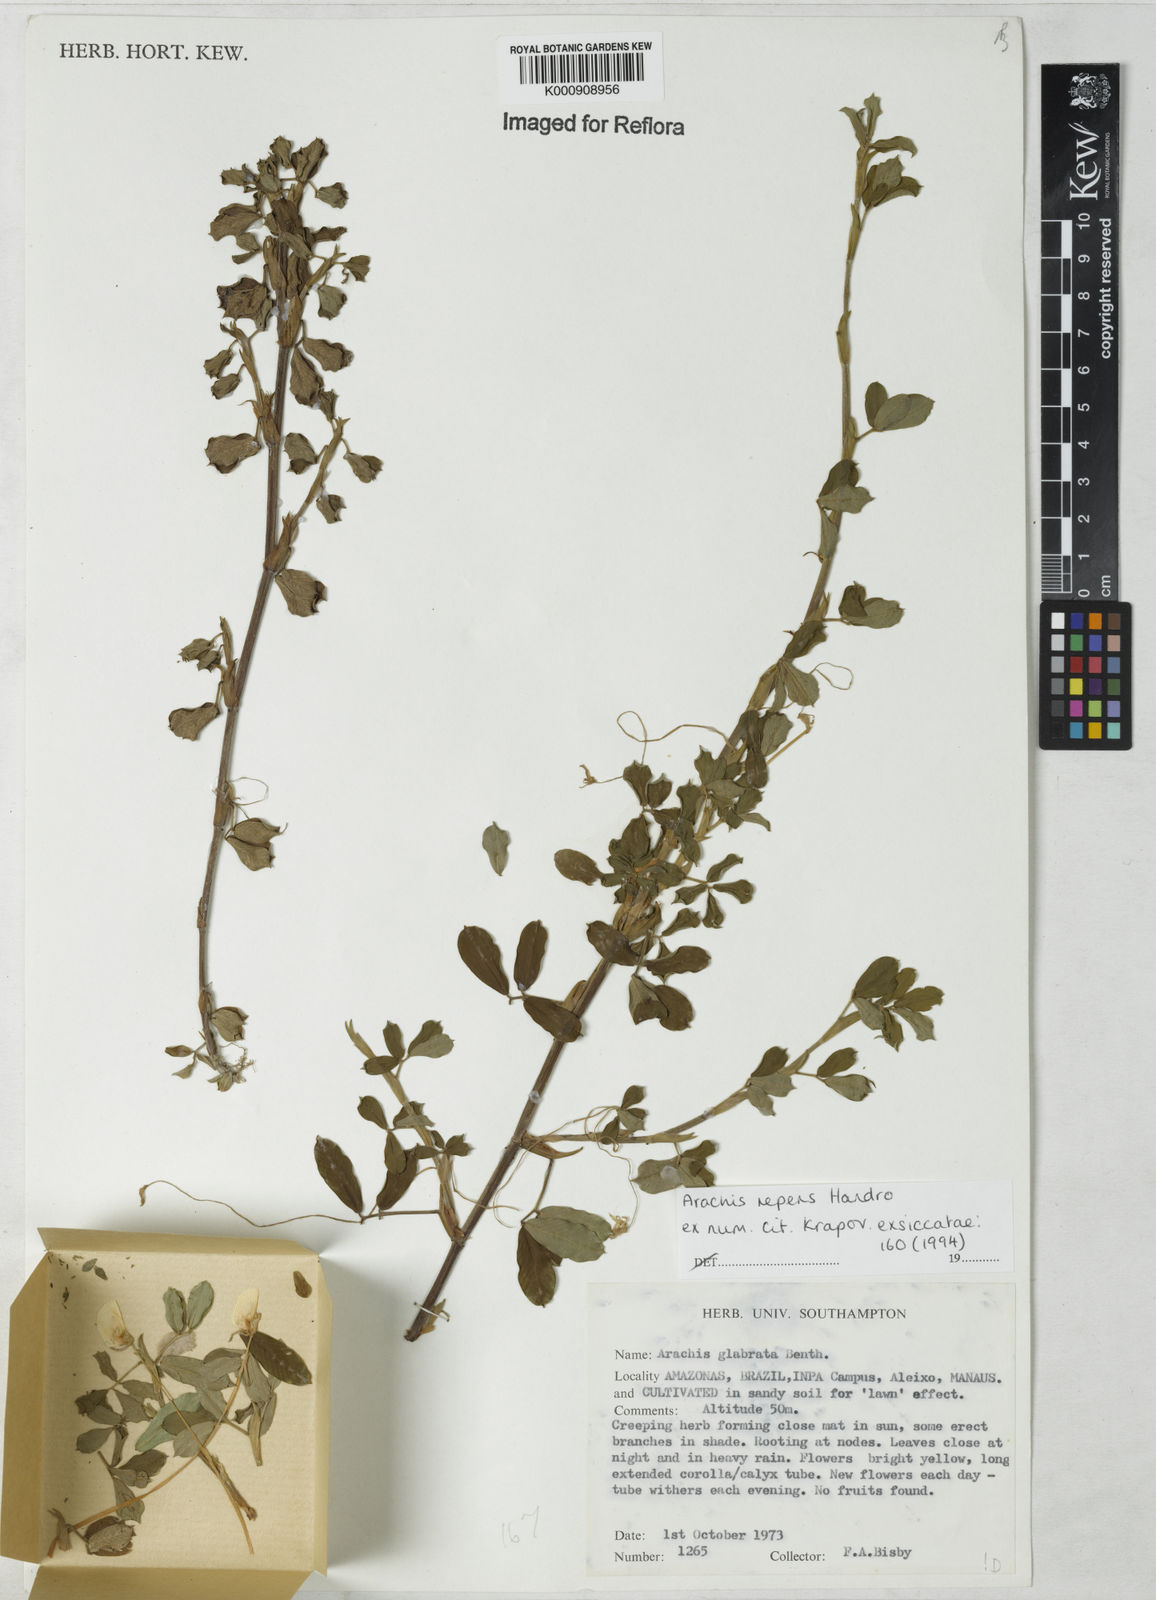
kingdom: Plantae
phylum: Tracheophyta
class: Magnoliopsida
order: Fabales
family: Fabaceae
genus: Arachis
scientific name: Arachis repens
